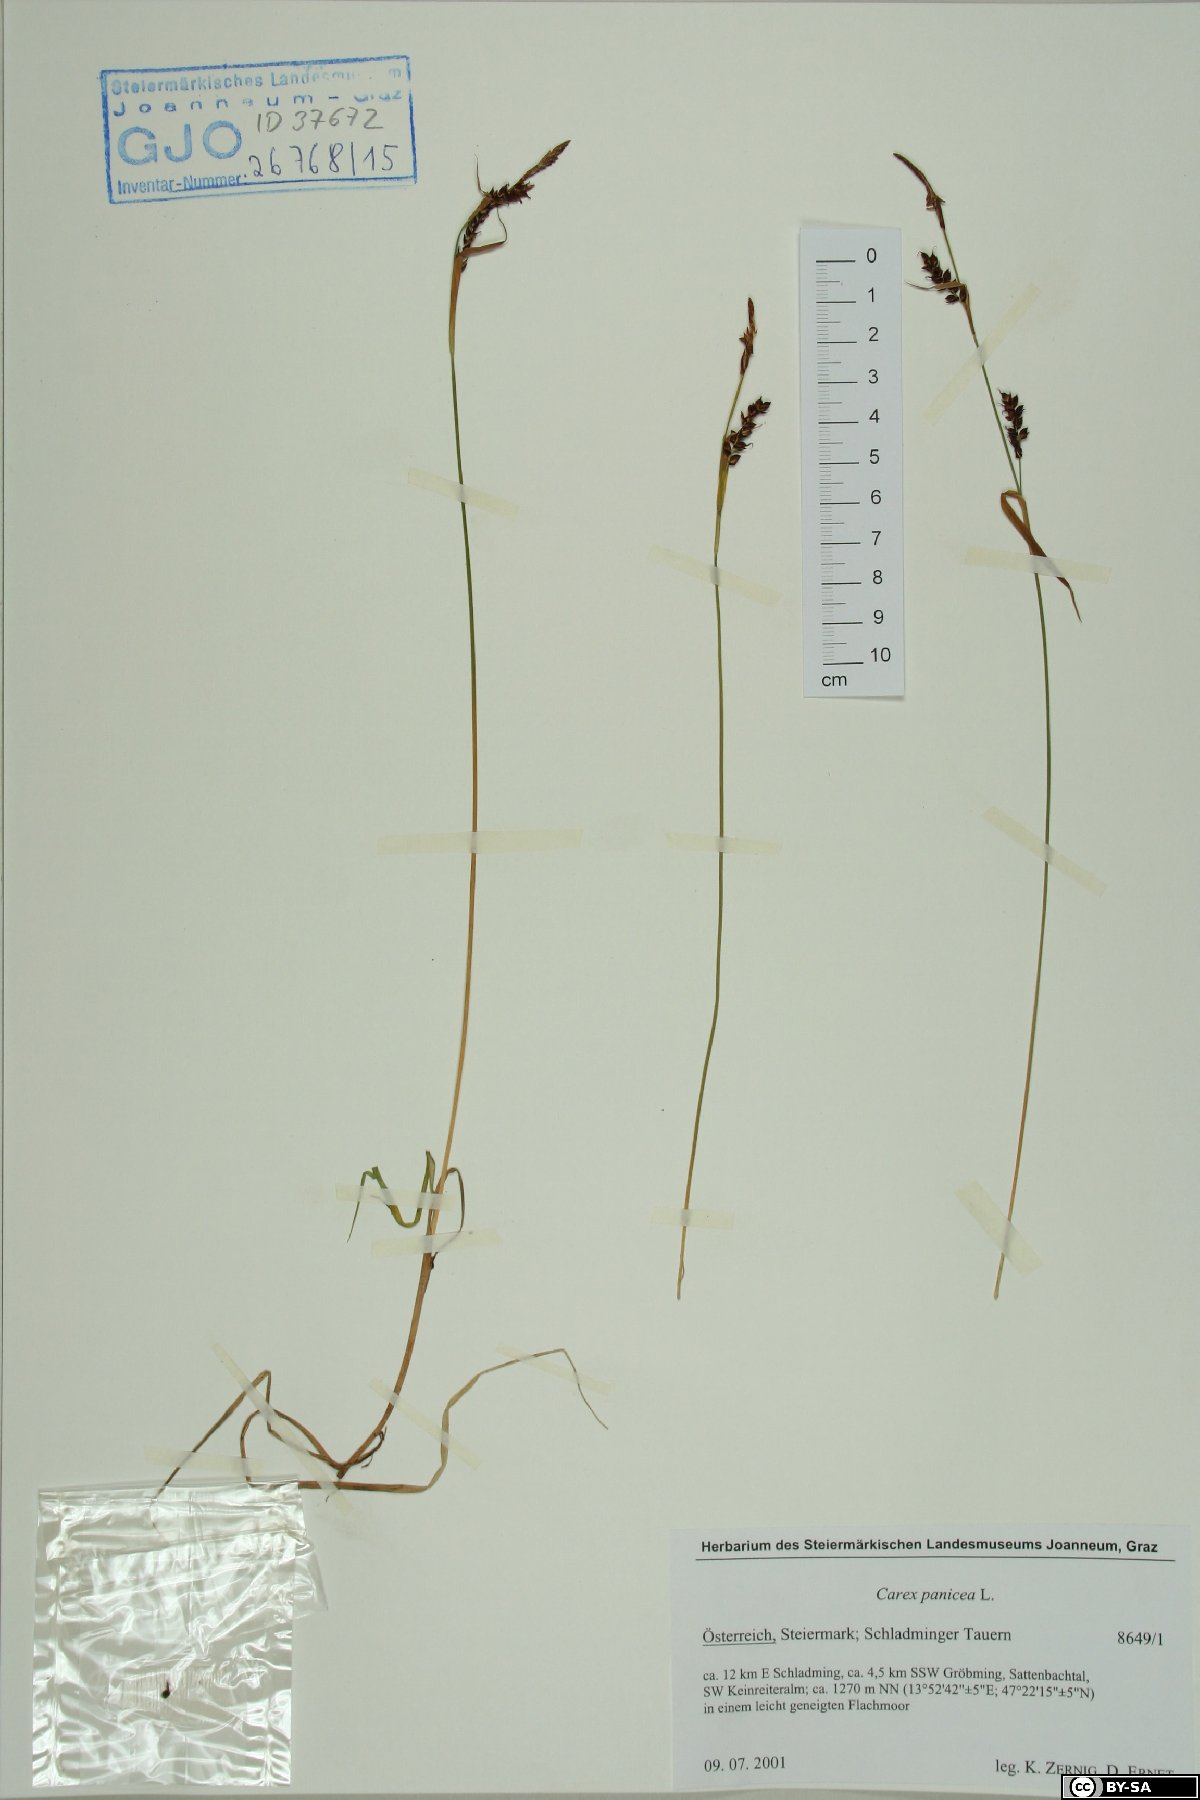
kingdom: Plantae
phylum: Tracheophyta
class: Liliopsida
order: Poales
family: Cyperaceae
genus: Carex
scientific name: Carex panicea
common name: Carnation sedge
